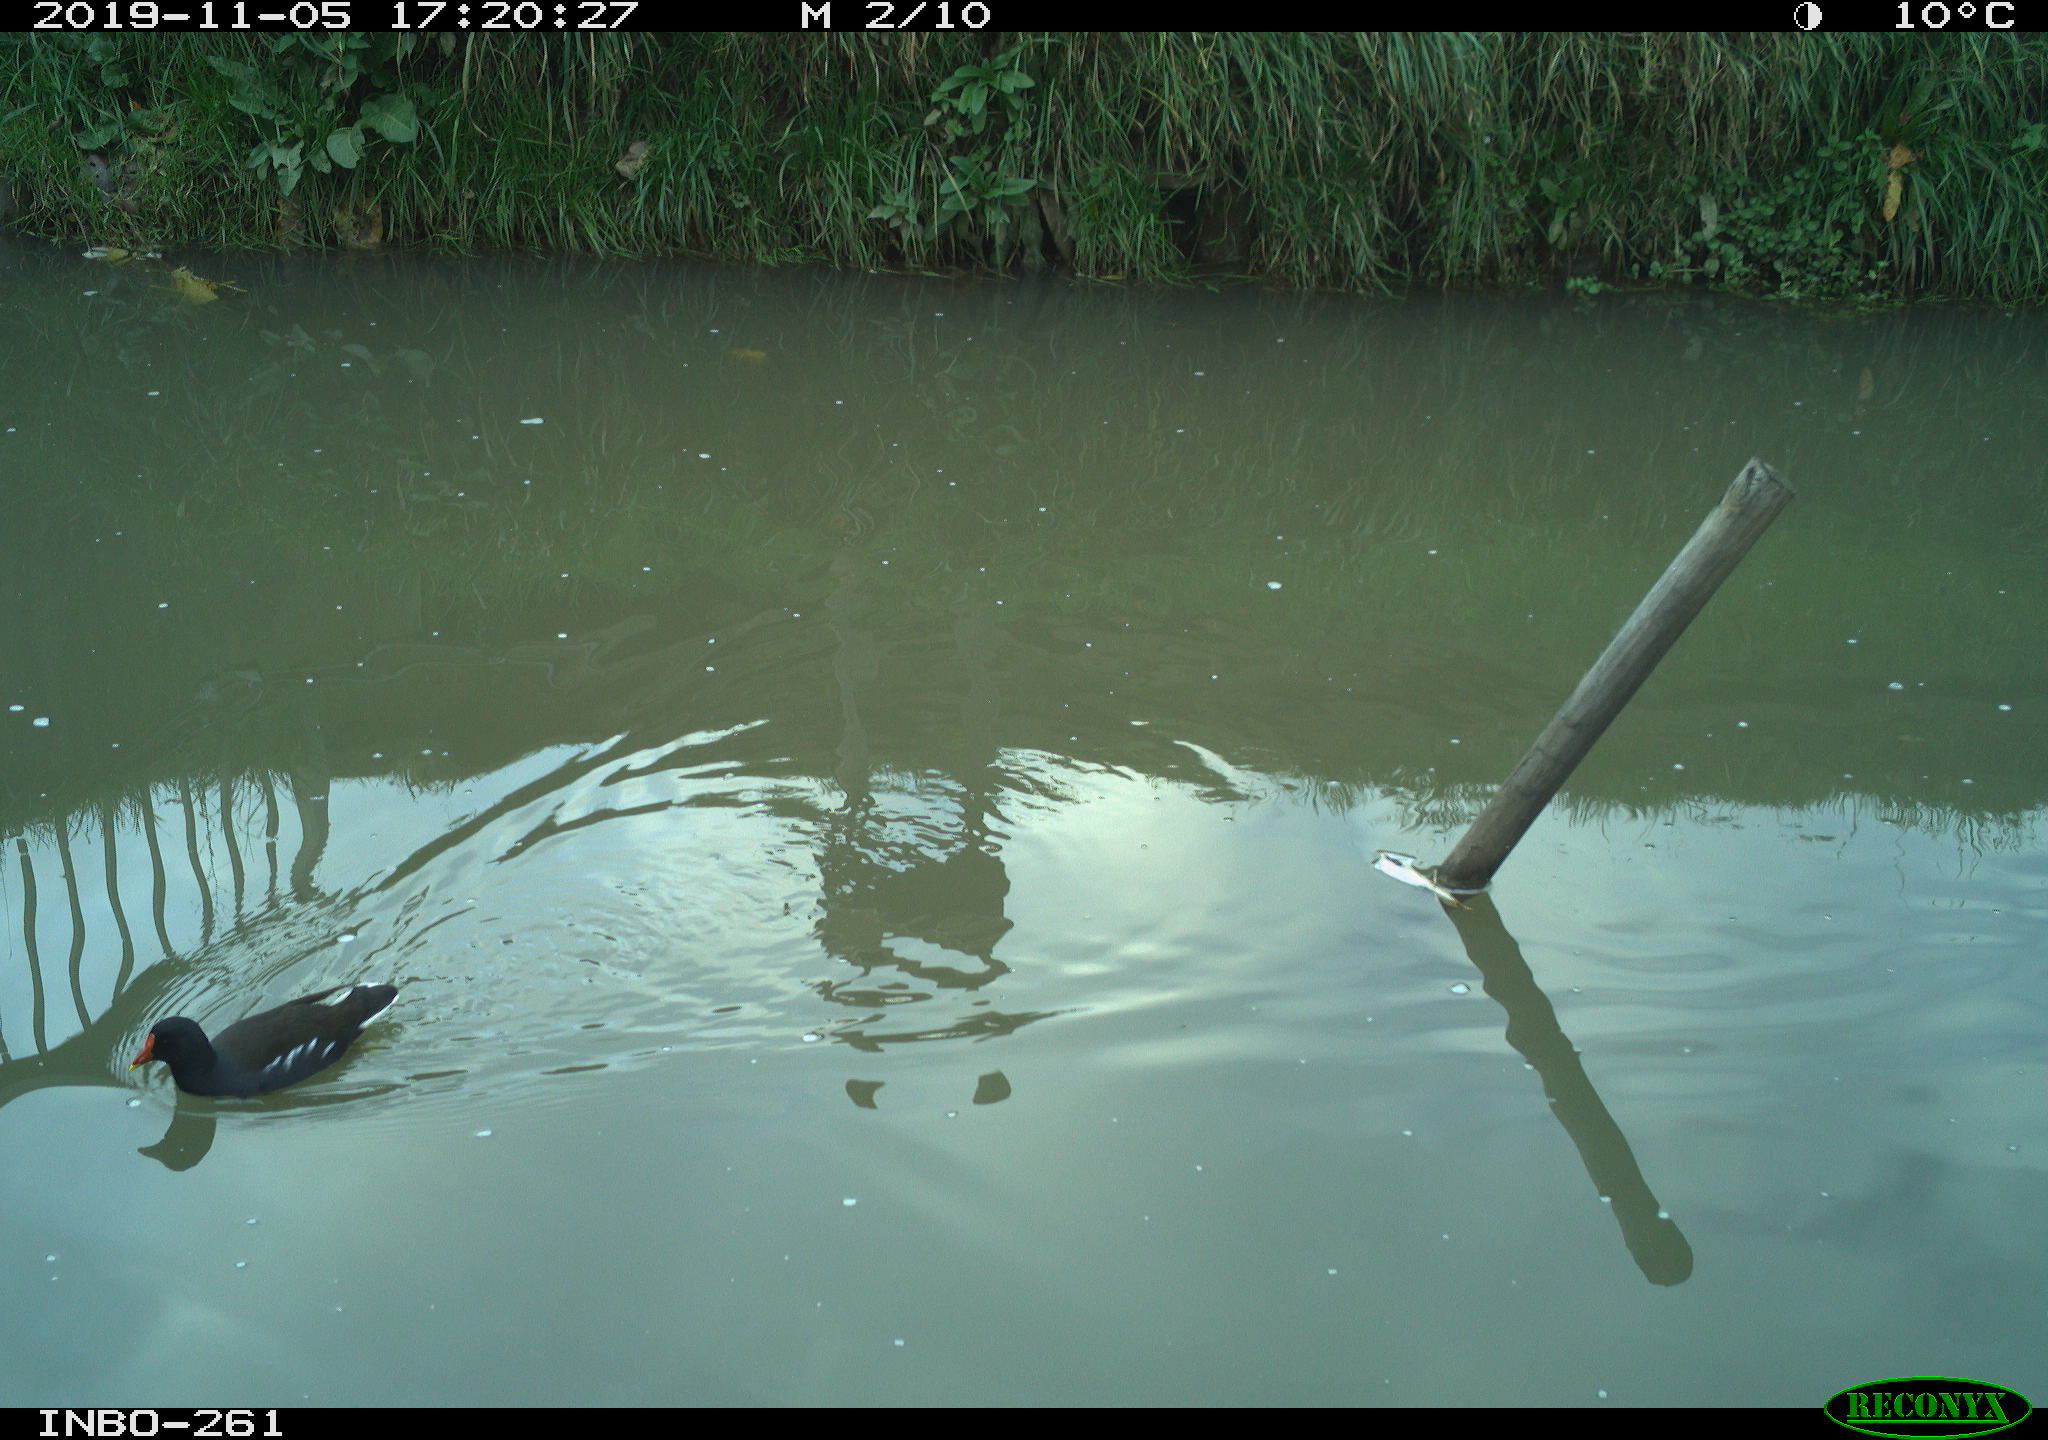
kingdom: Animalia
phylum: Chordata
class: Aves
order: Gruiformes
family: Rallidae
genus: Gallinula
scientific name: Gallinula chloropus
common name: Common moorhen
